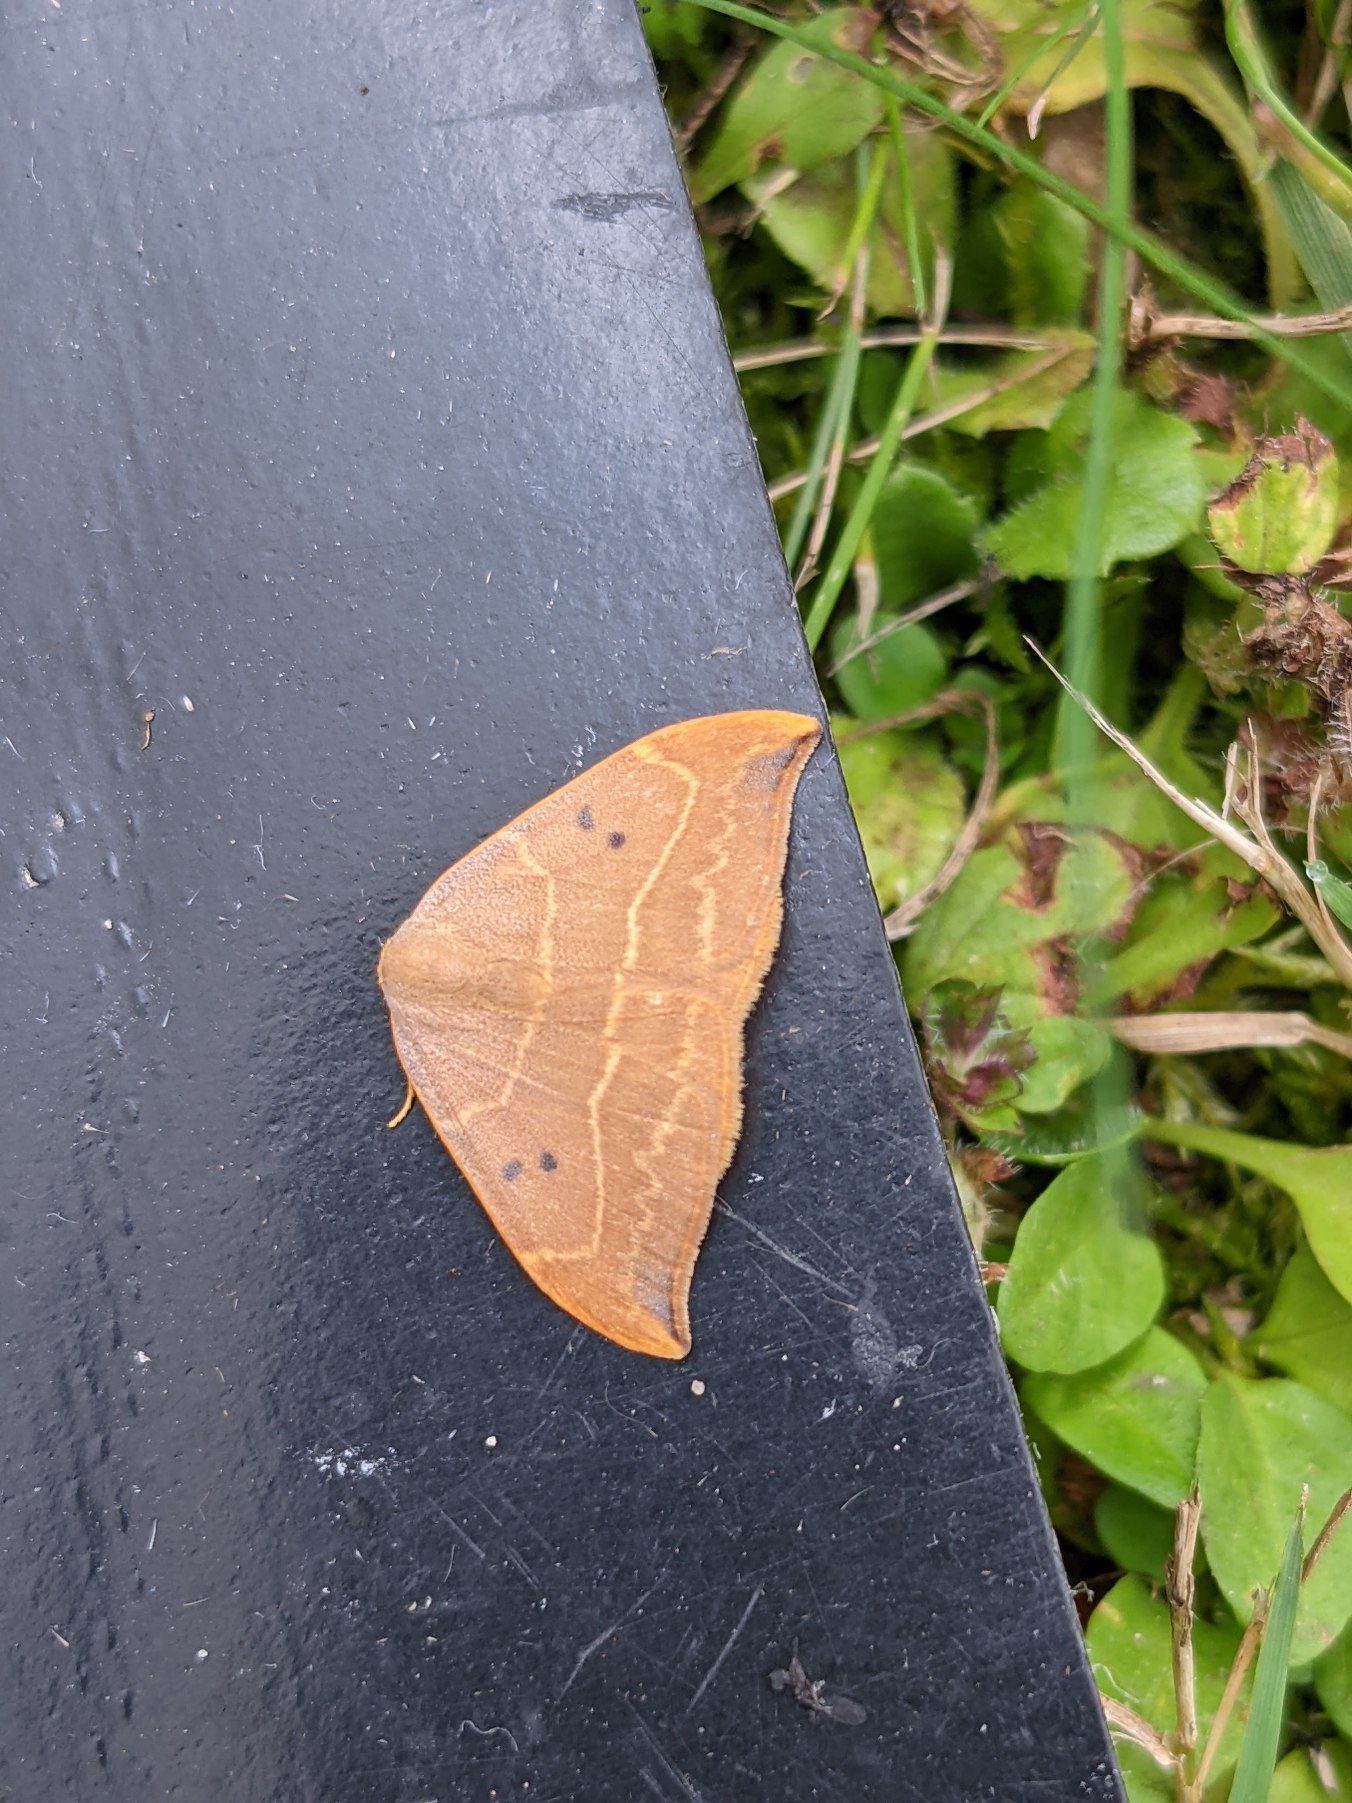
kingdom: Animalia
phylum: Arthropoda
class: Insecta
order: Lepidoptera
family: Drepanidae
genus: Watsonalla
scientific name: Watsonalla binaria
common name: Toplettet seglvinge
